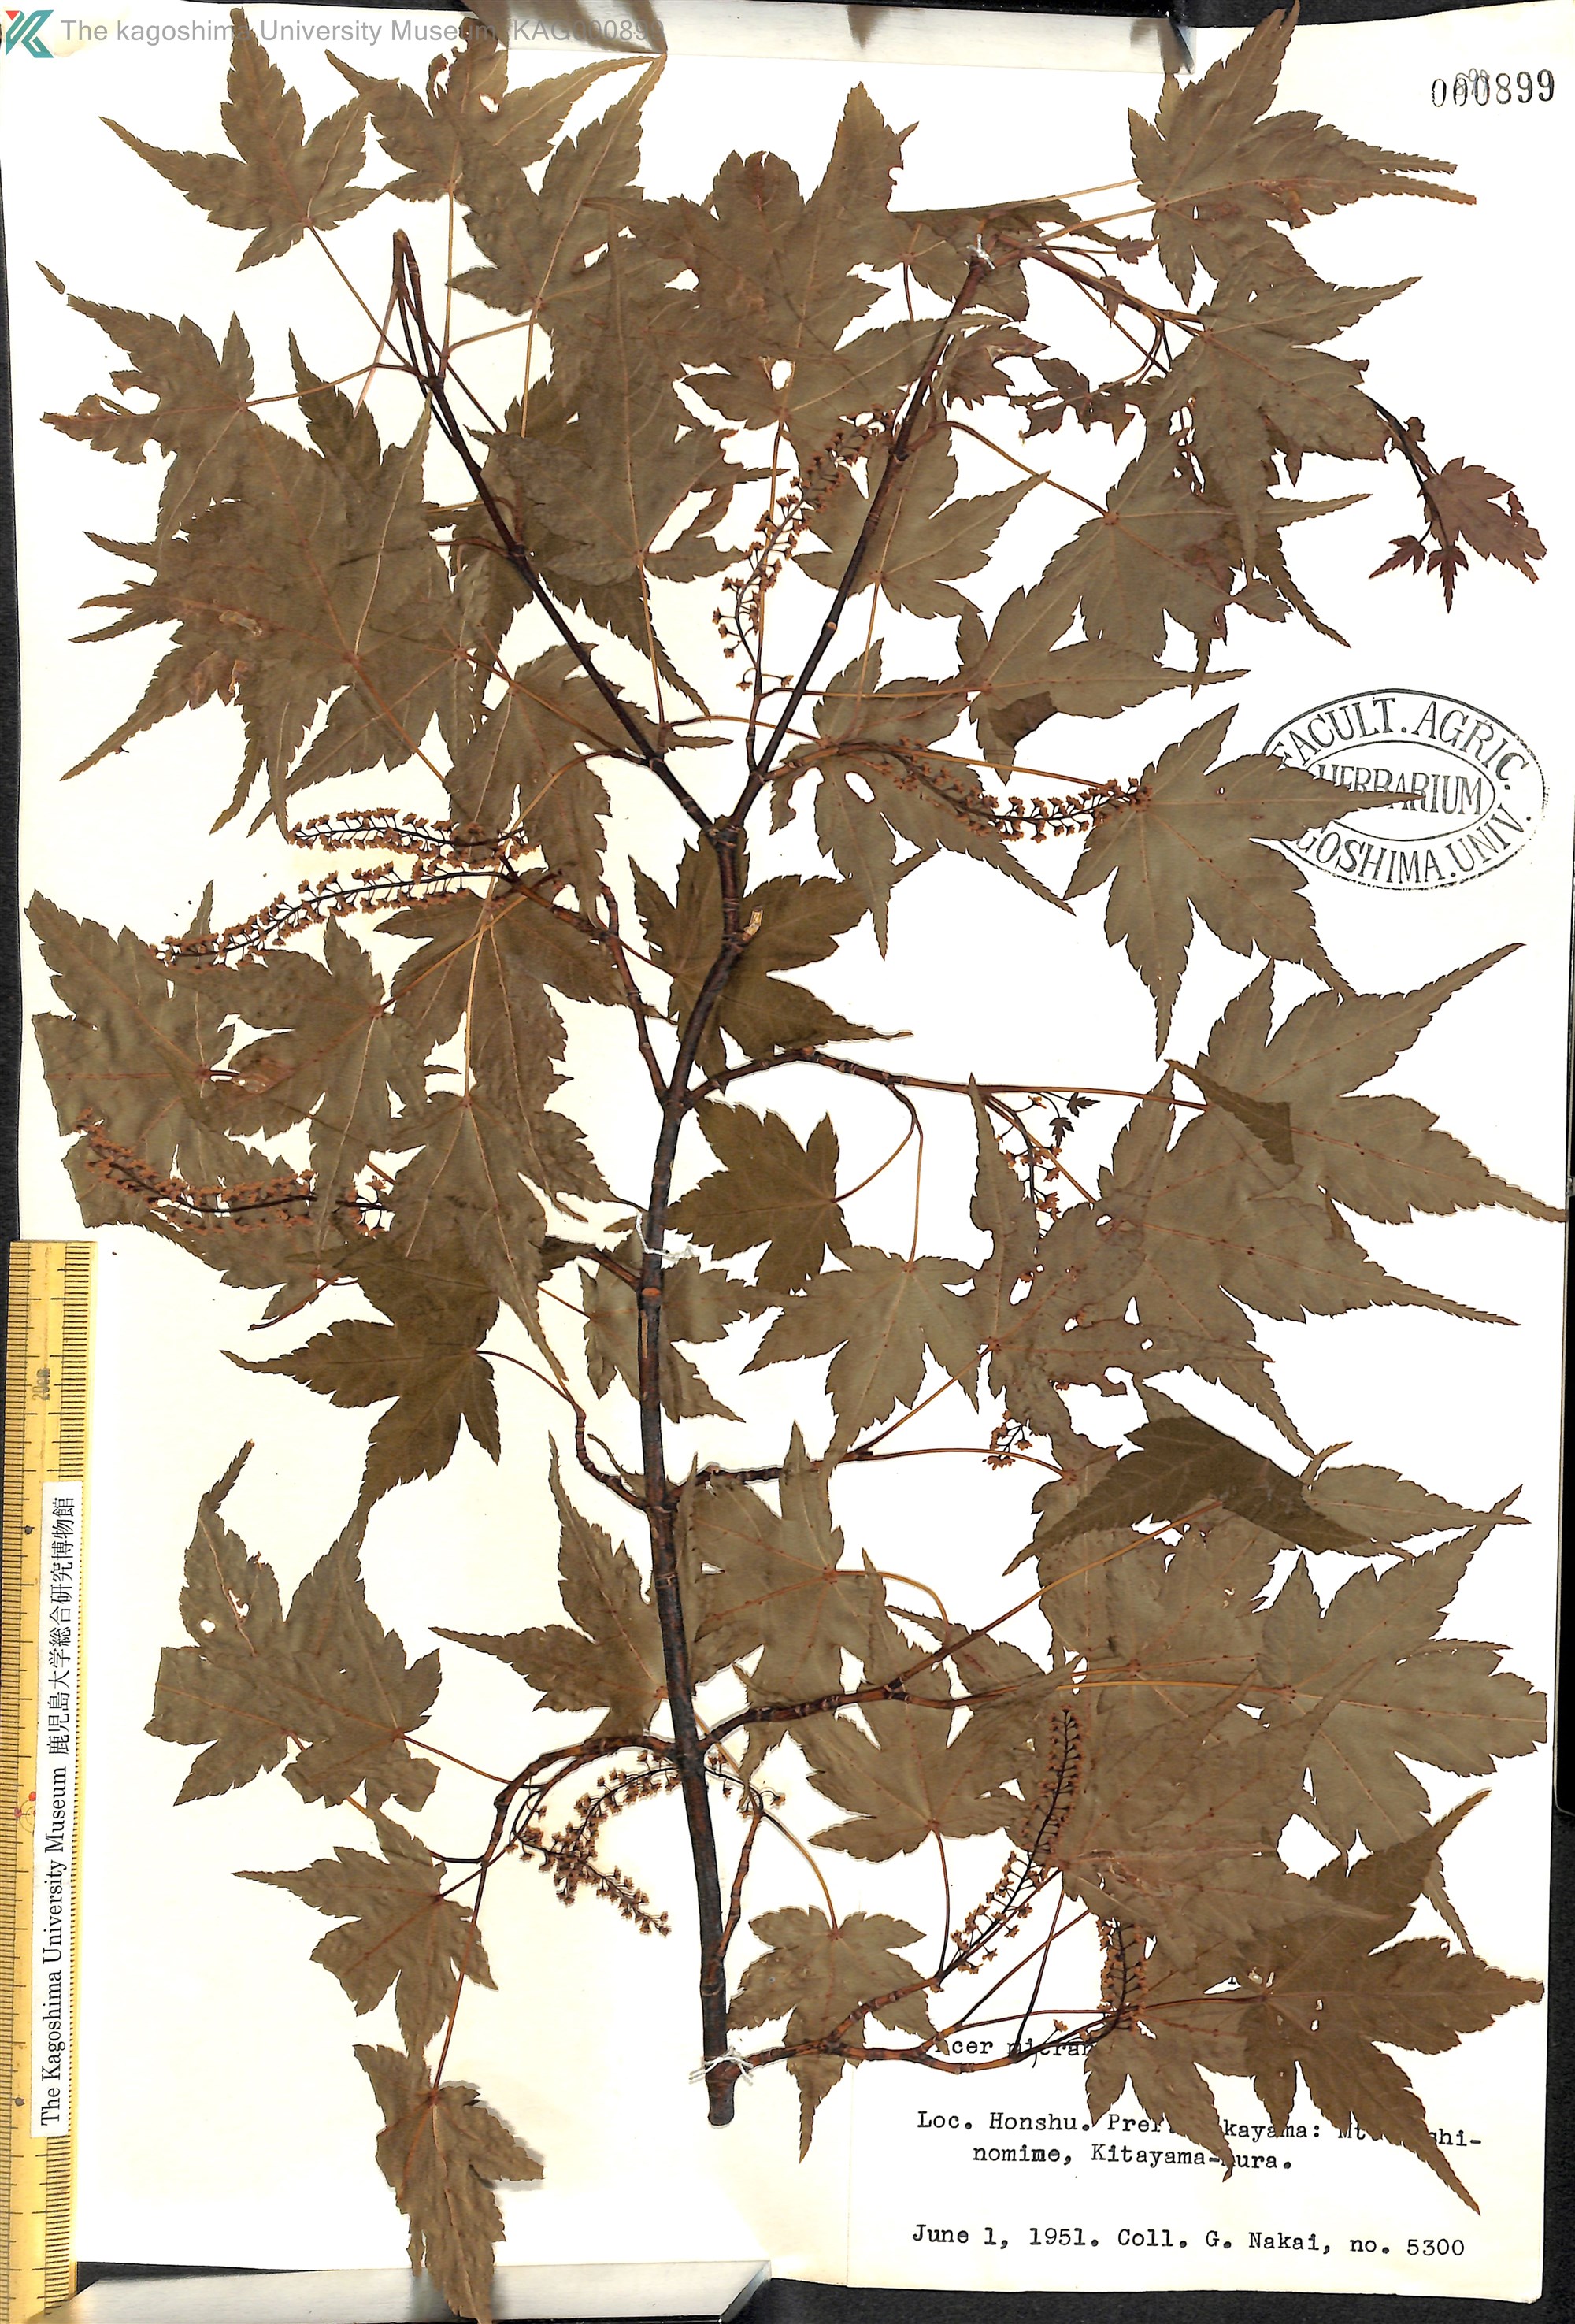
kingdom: Plantae
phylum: Tracheophyta
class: Magnoliopsida
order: Sapindales
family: Sapindaceae
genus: Acer
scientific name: Acer micranthum
